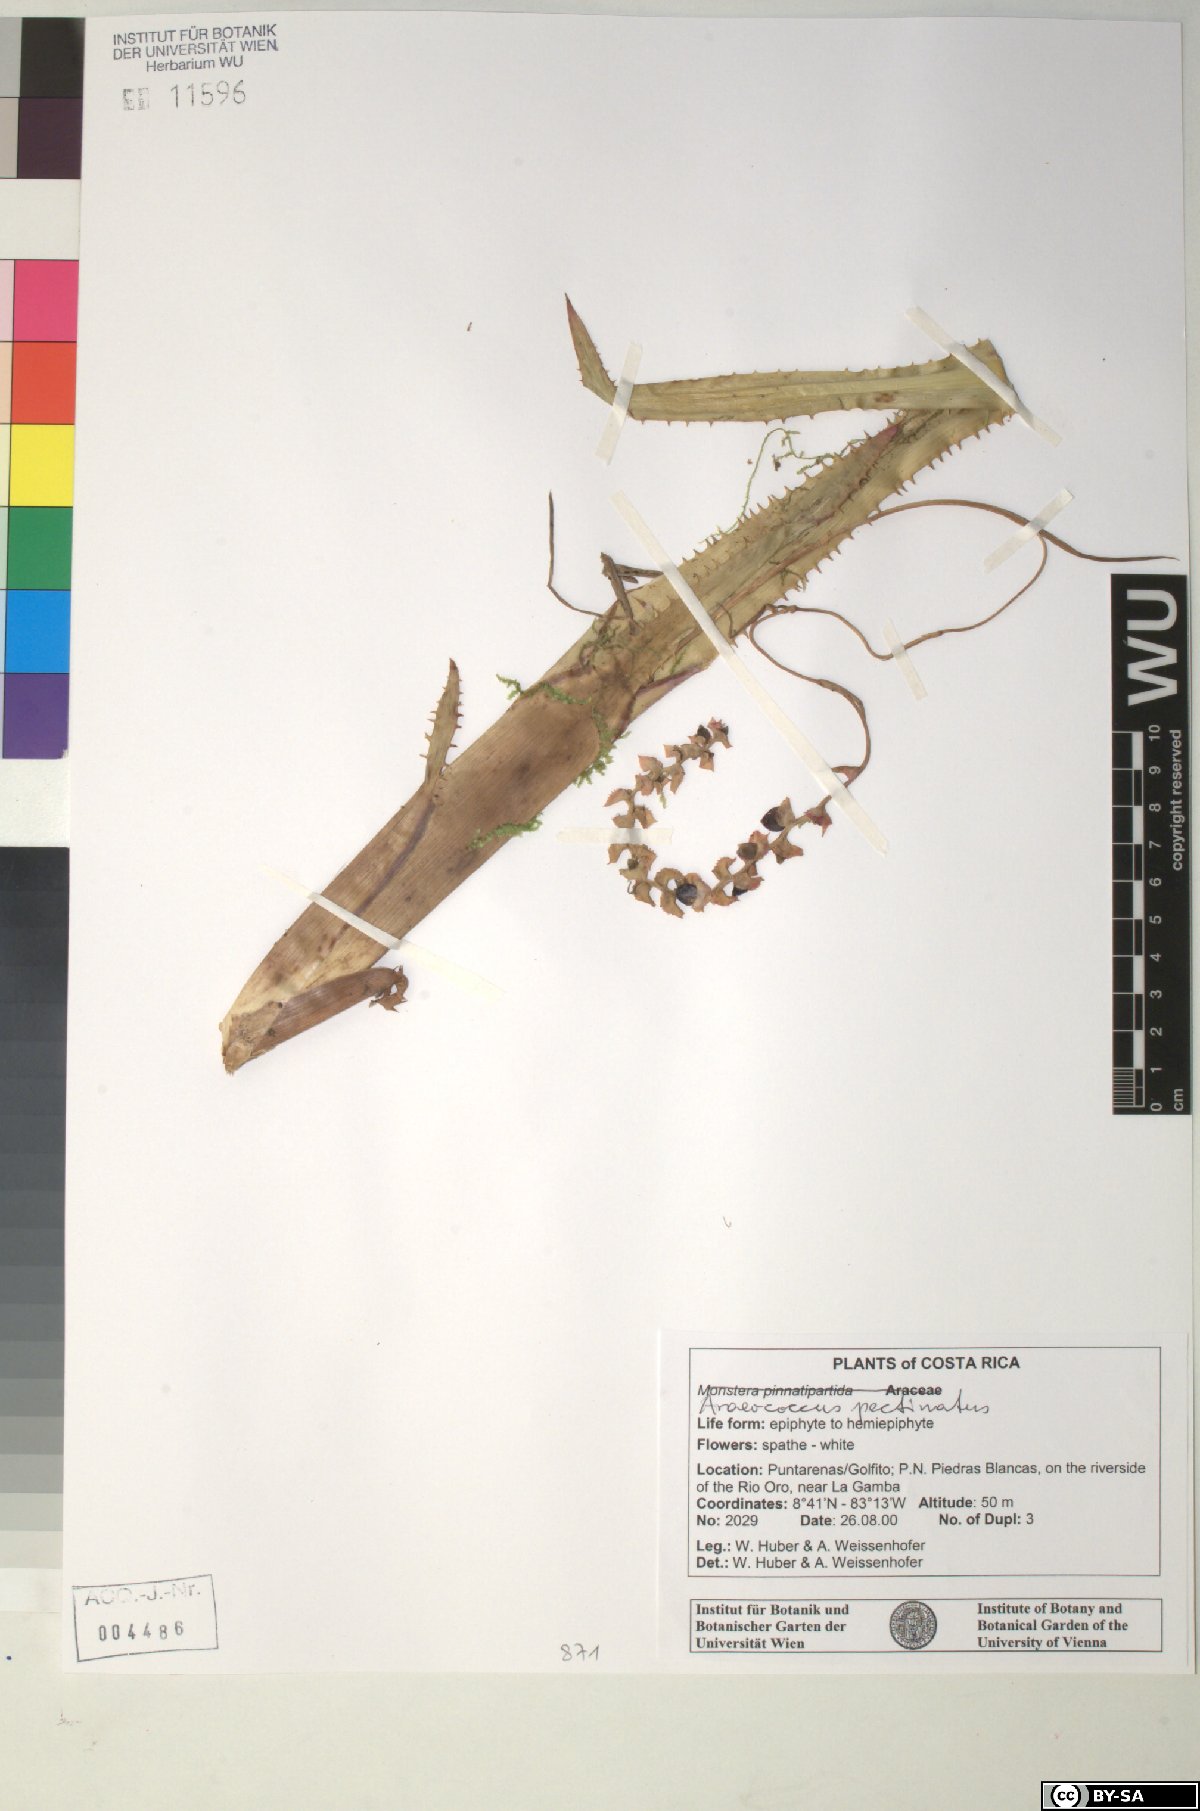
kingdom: Plantae
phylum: Tracheophyta
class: Liliopsida
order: Poales
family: Bromeliaceae
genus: Araeococcus
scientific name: Araeococcus pectinatus
